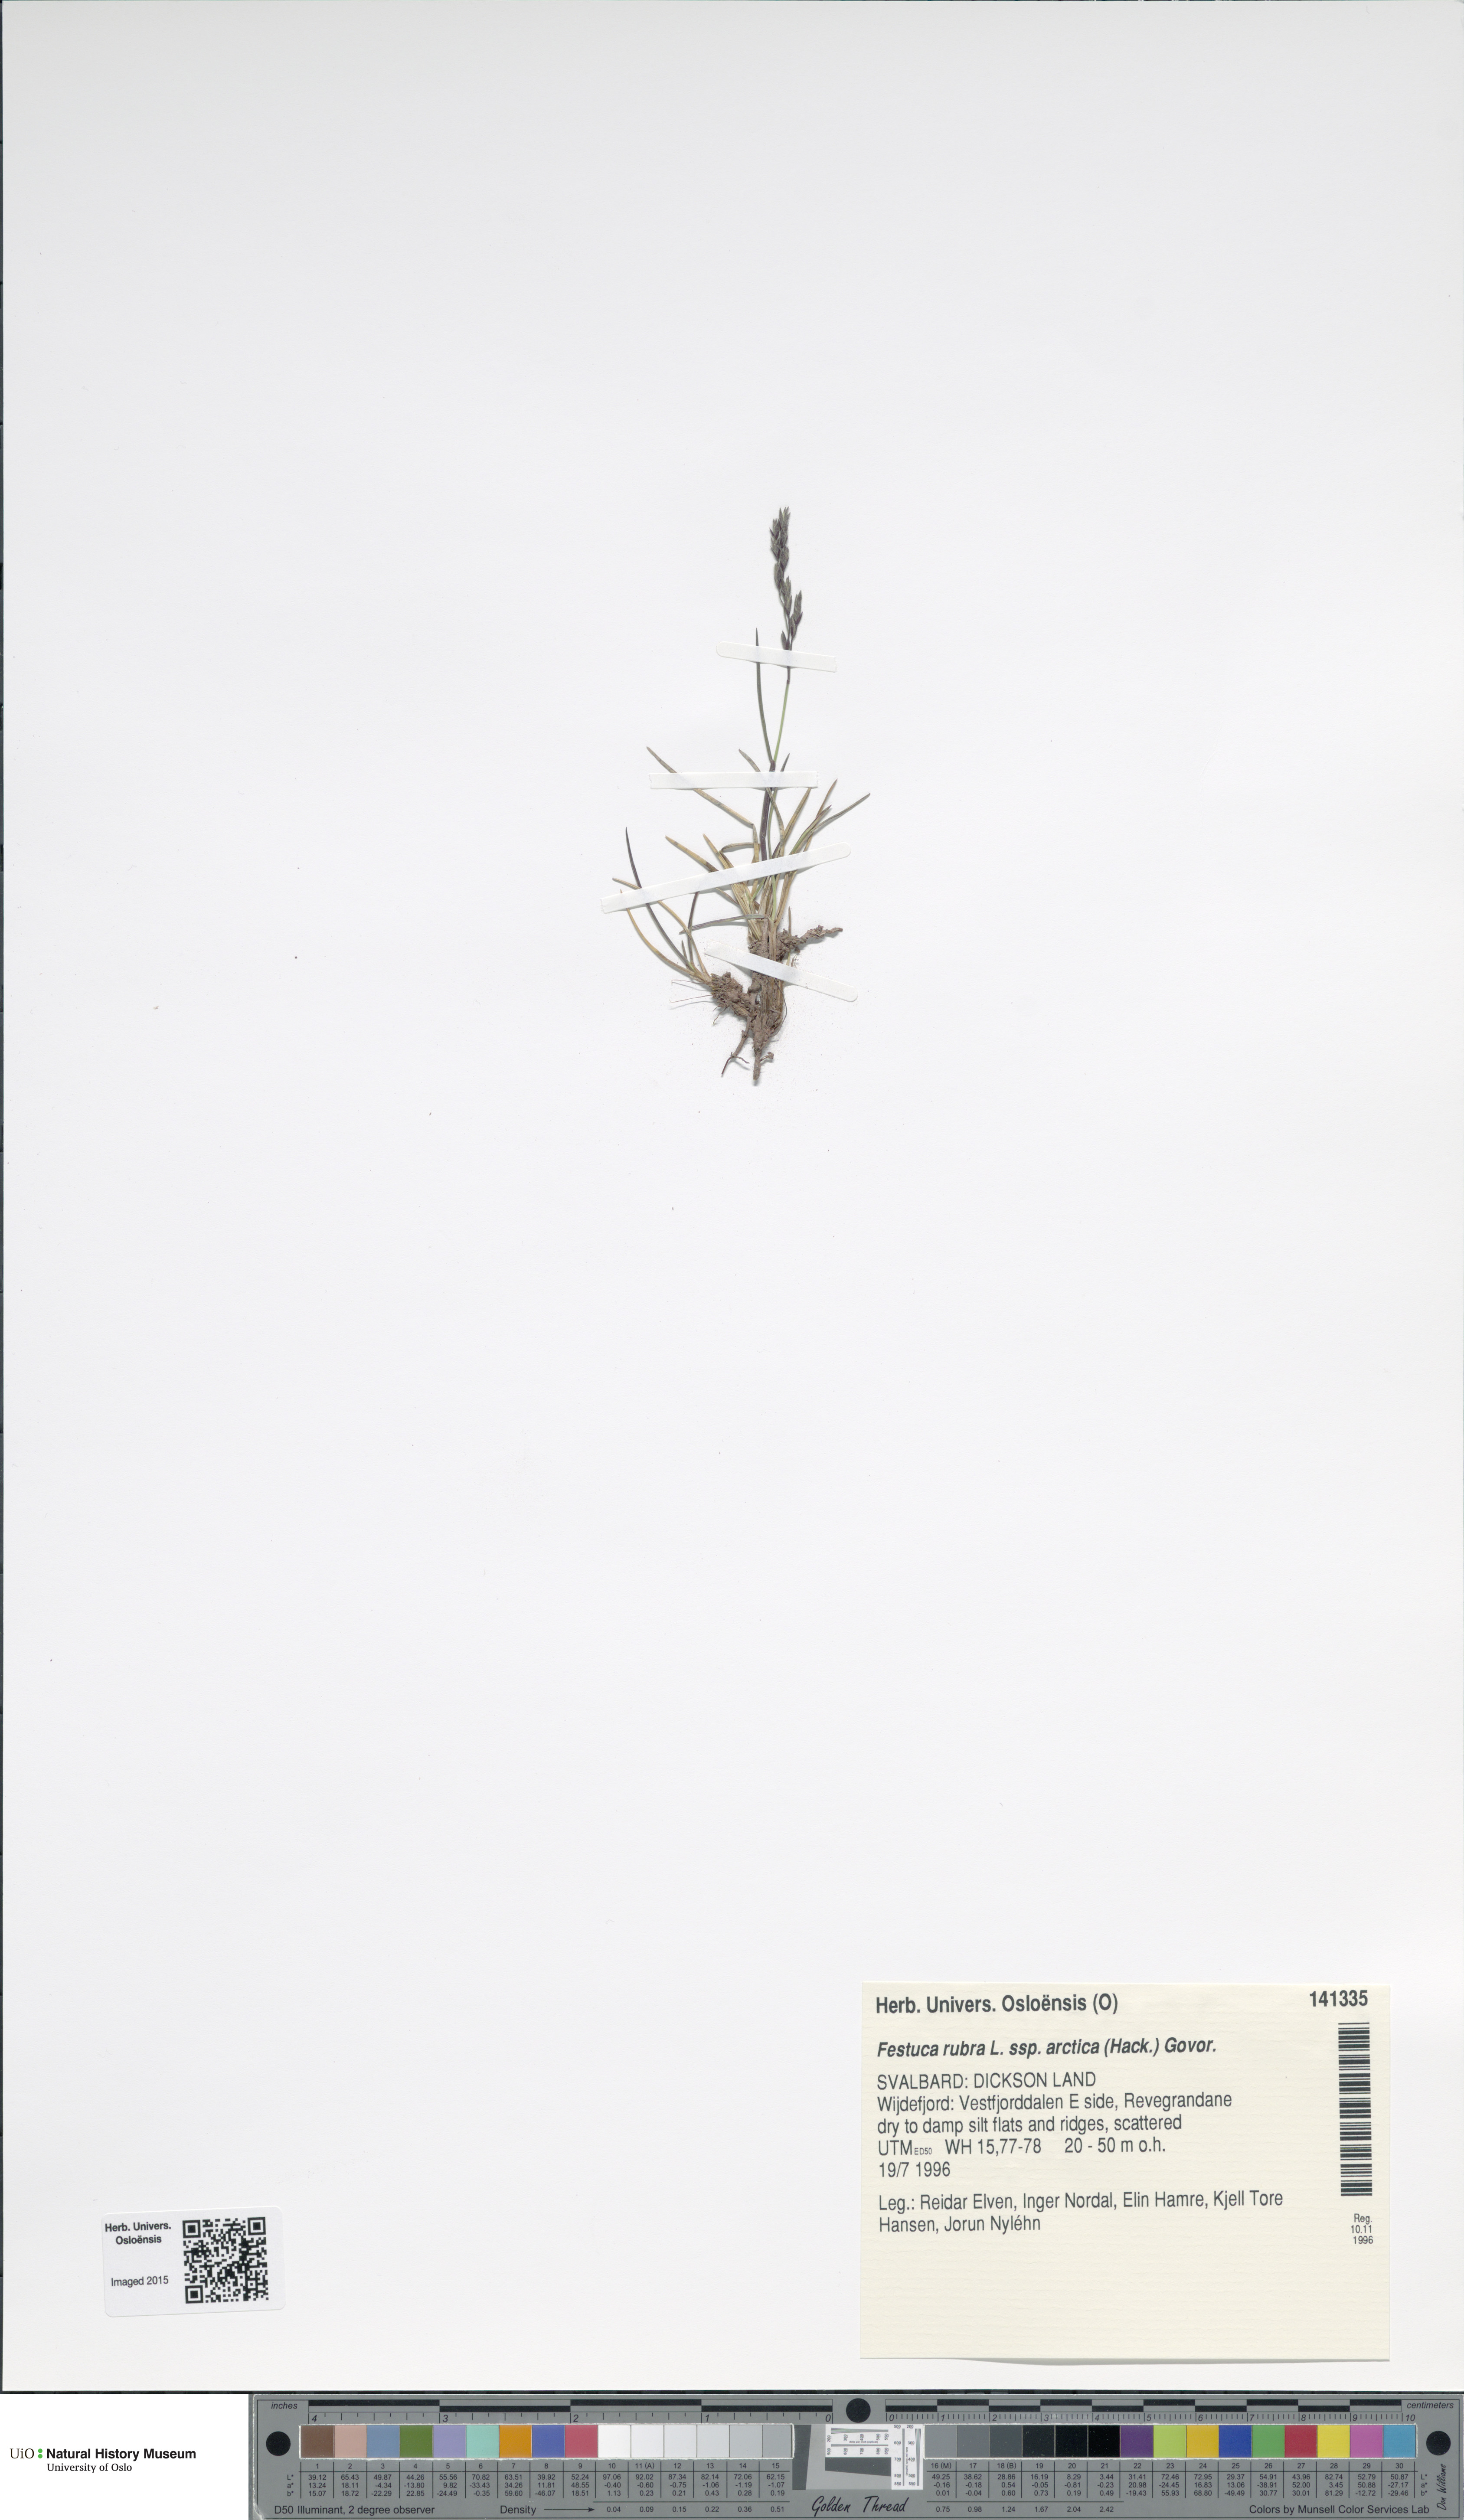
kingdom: Plantae
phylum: Tracheophyta
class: Liliopsida
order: Poales
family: Poaceae
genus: Festuca
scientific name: Festuca richardsonii
